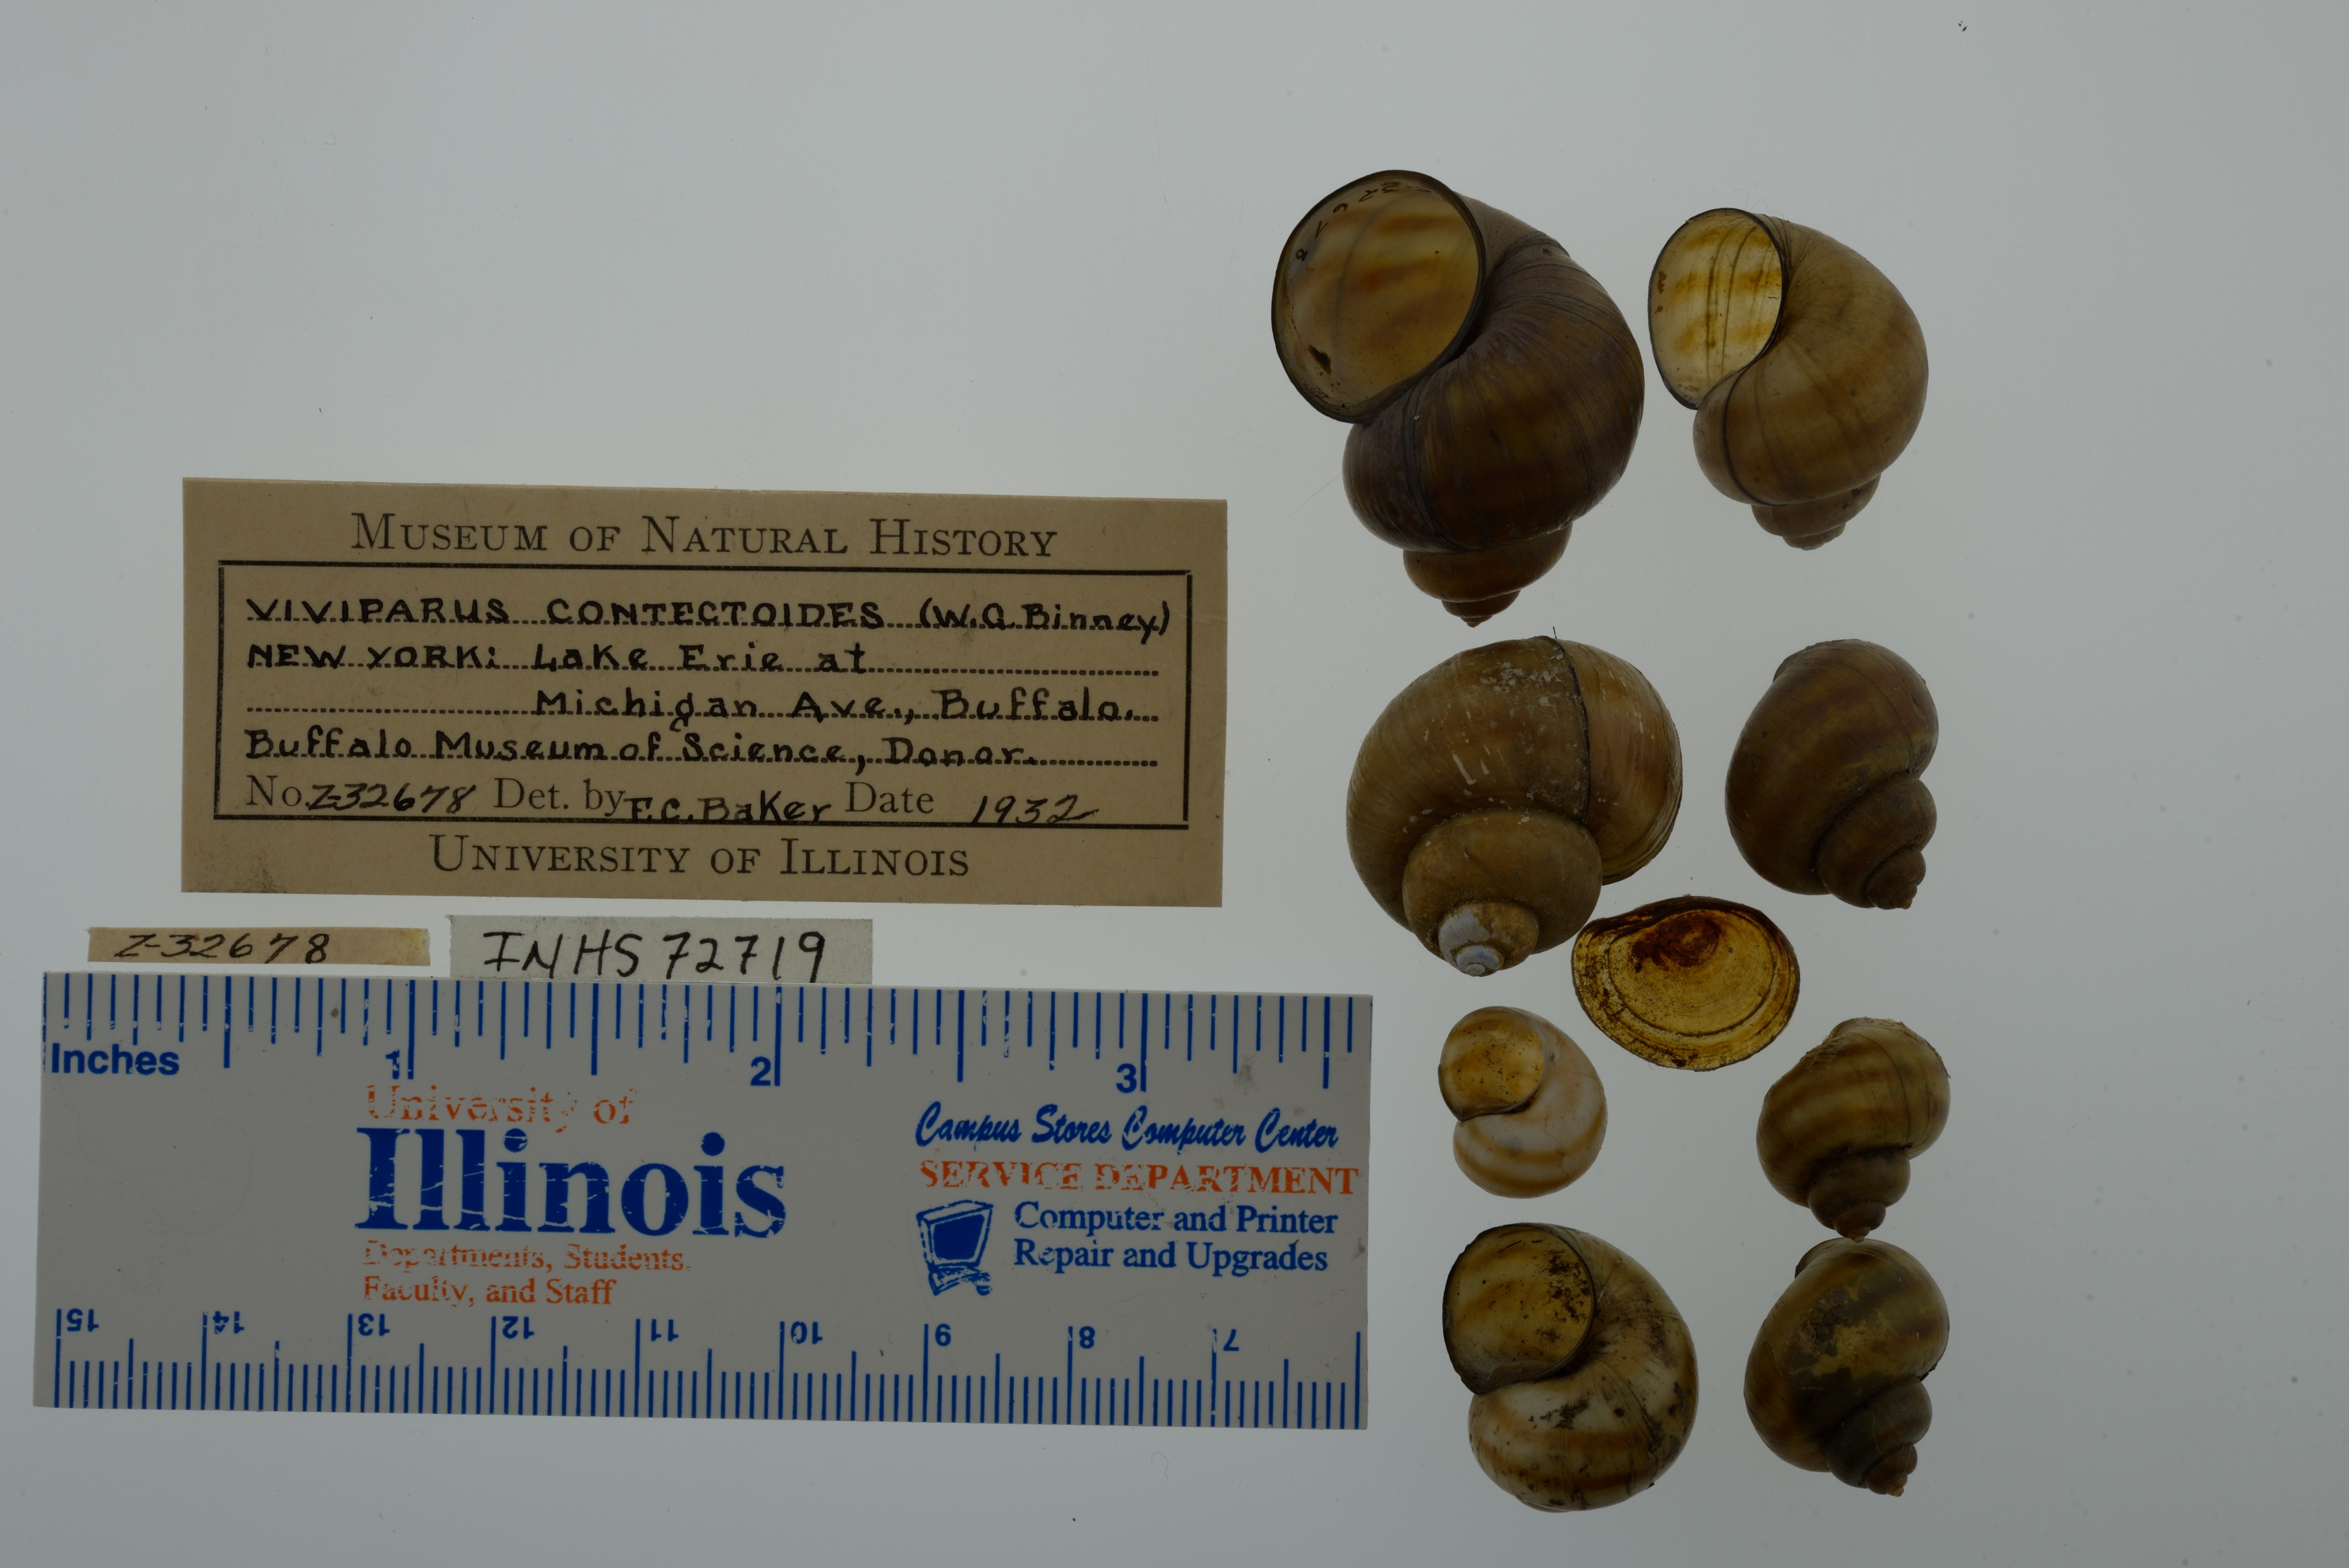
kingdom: Animalia
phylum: Mollusca
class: Gastropoda
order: Architaenioglossa
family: Viviparidae
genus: Callinina
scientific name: Callinina georgiana
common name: Banded mystery snail
